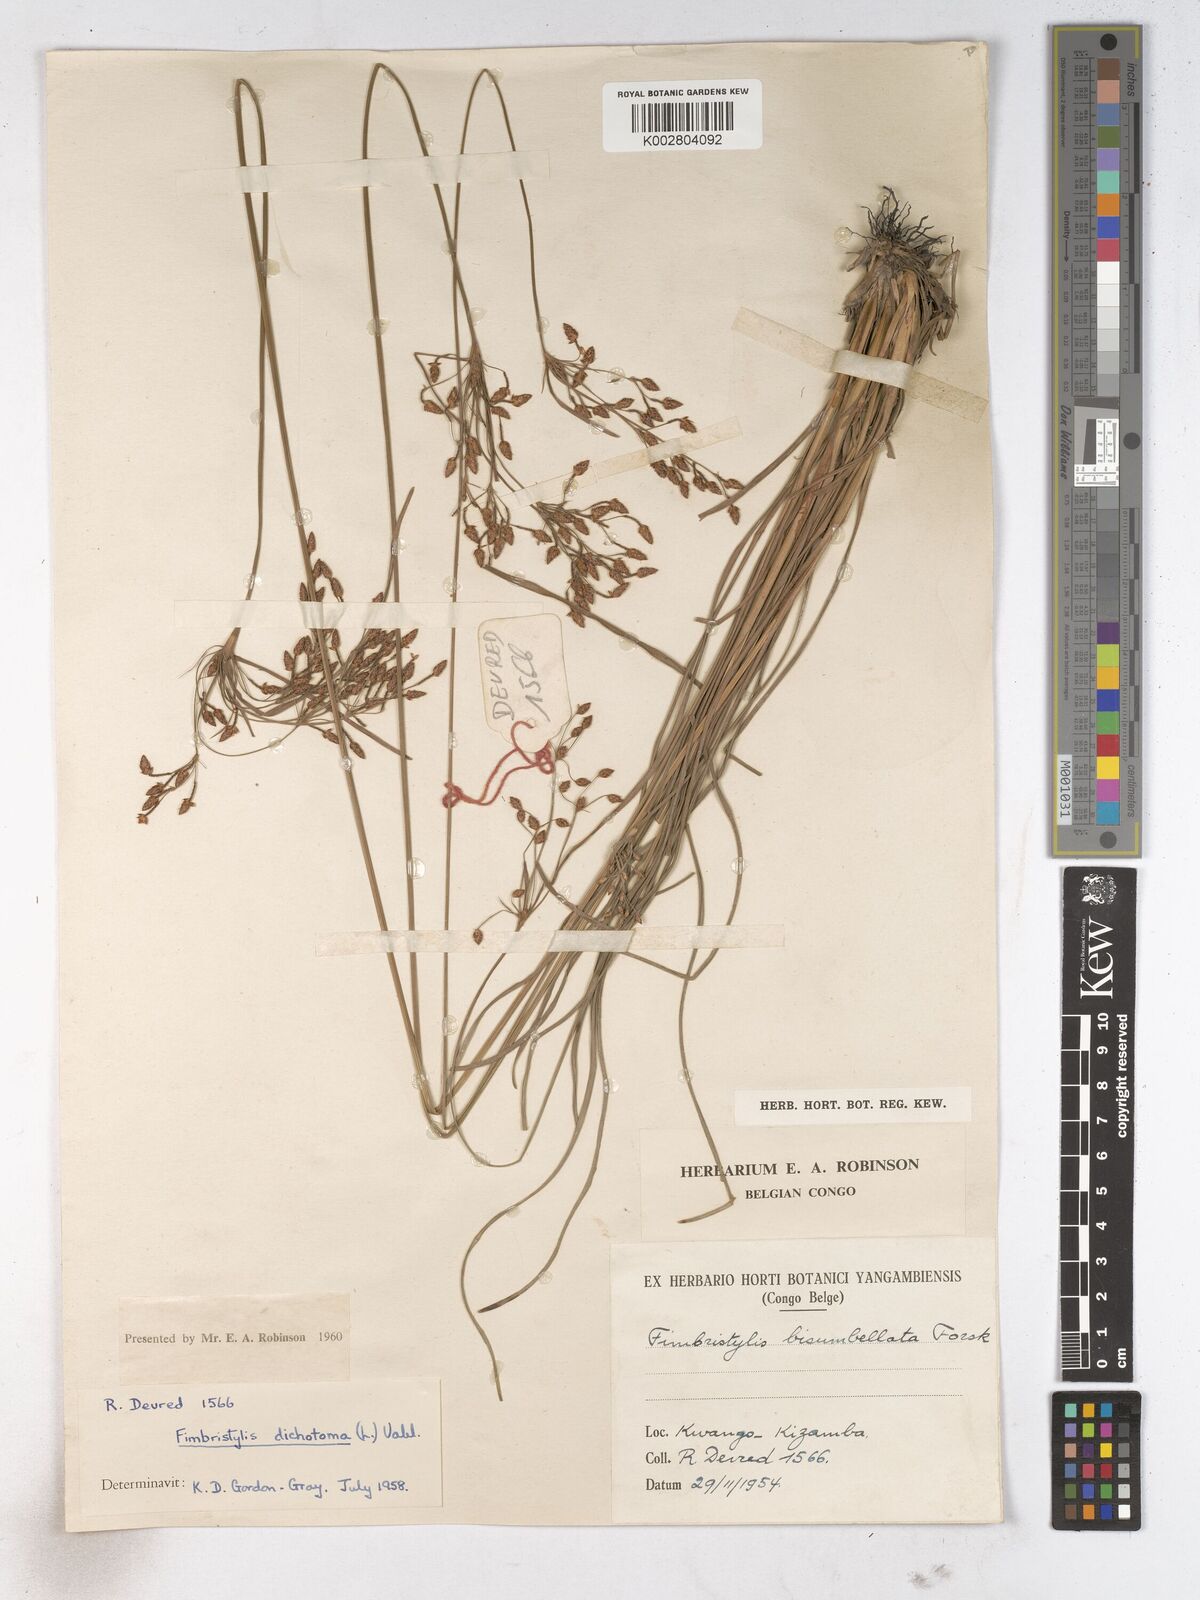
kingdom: Plantae
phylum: Tracheophyta
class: Liliopsida
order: Poales
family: Cyperaceae
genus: Fimbristylis
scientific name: Fimbristylis dichotoma
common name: Forked fimbry
